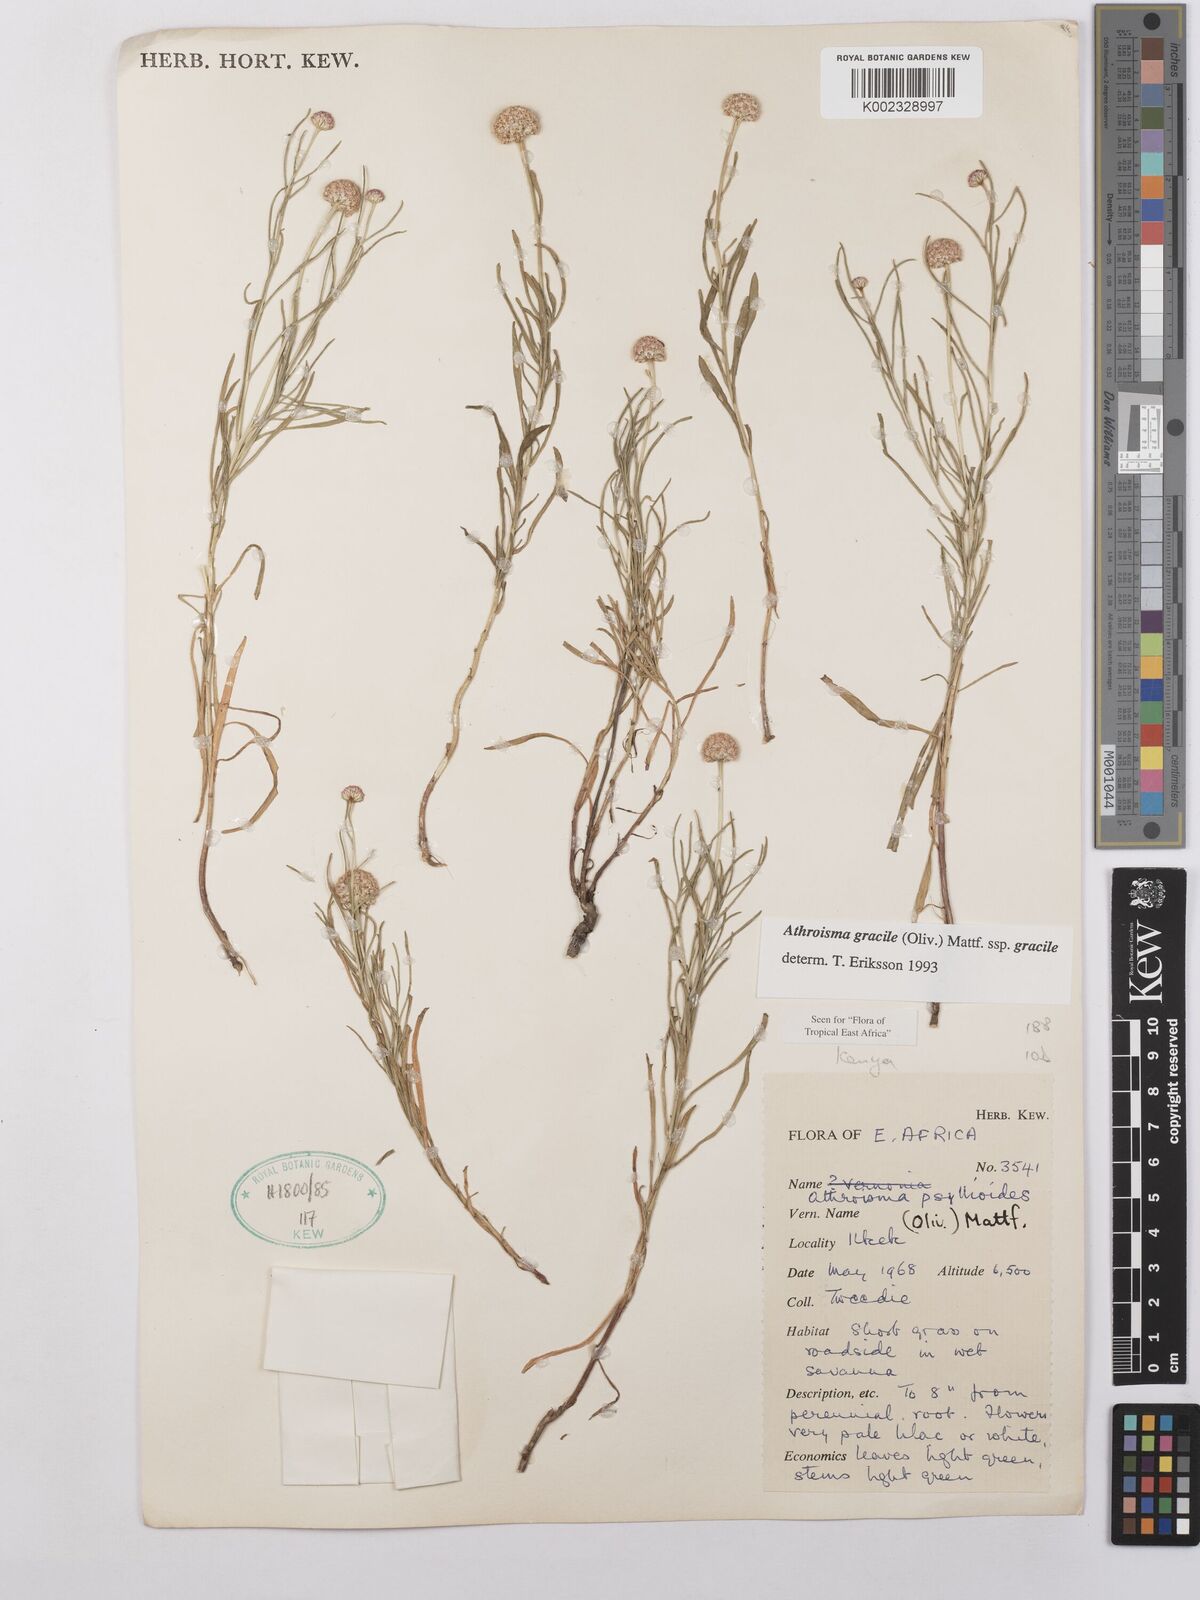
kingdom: Plantae
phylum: Tracheophyta
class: Magnoliopsida
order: Asterales
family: Asteraceae
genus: Athroisma
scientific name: Athroisma gracile
